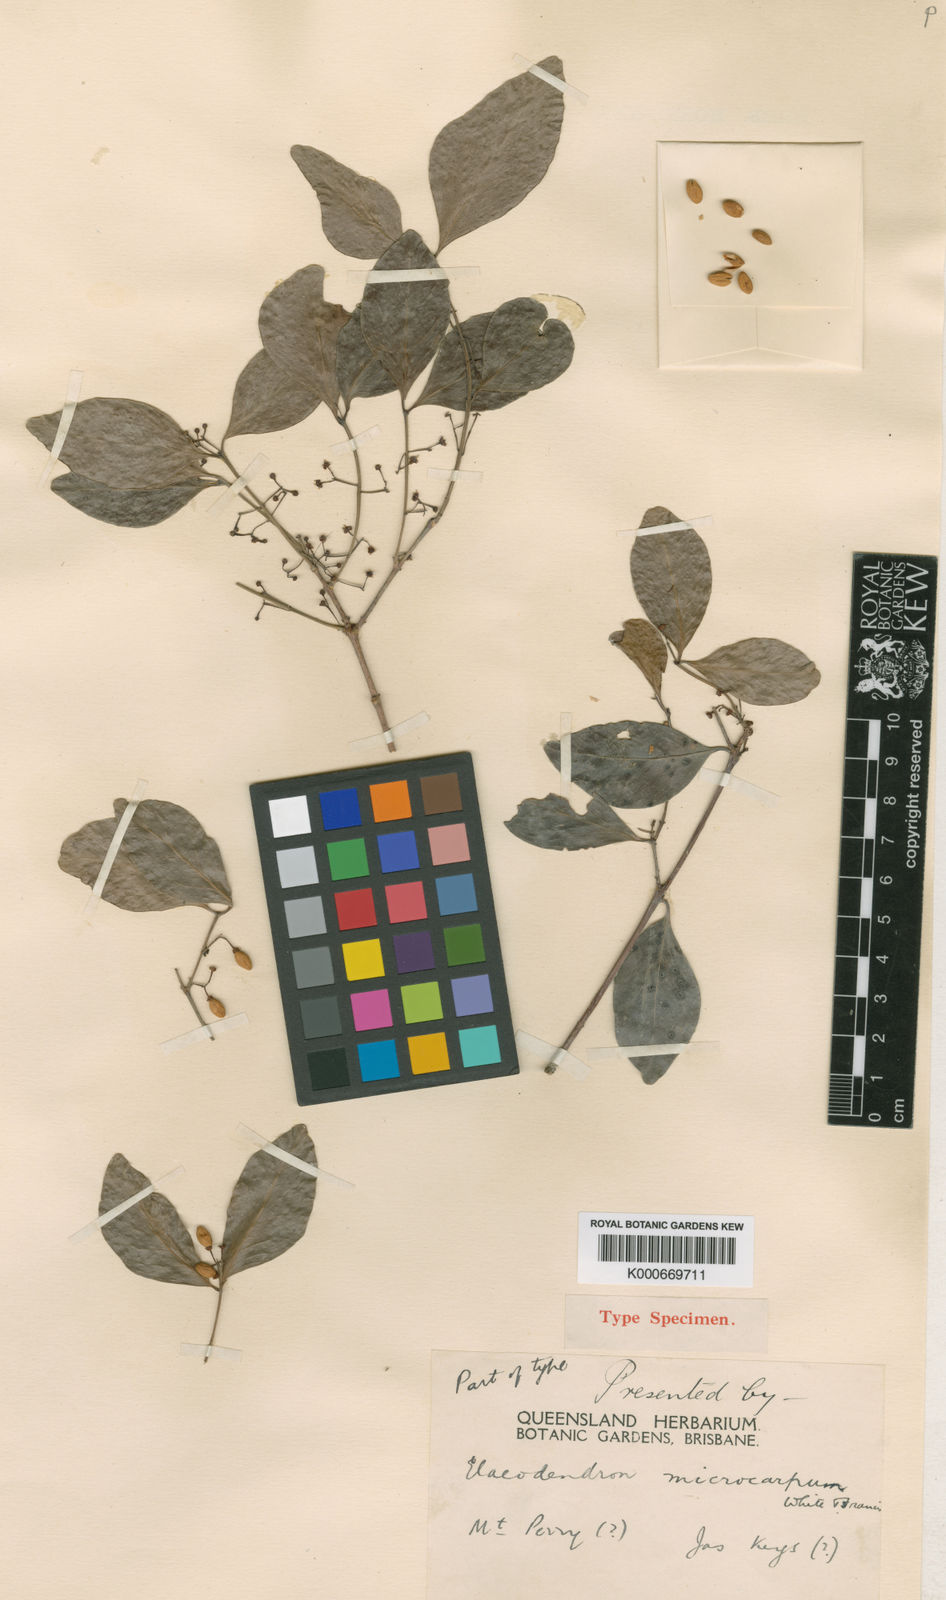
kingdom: Plantae
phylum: Tracheophyta
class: Magnoliopsida
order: Celastrales
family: Celastraceae
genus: Pleurostylia
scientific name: Pleurostylia opposita
